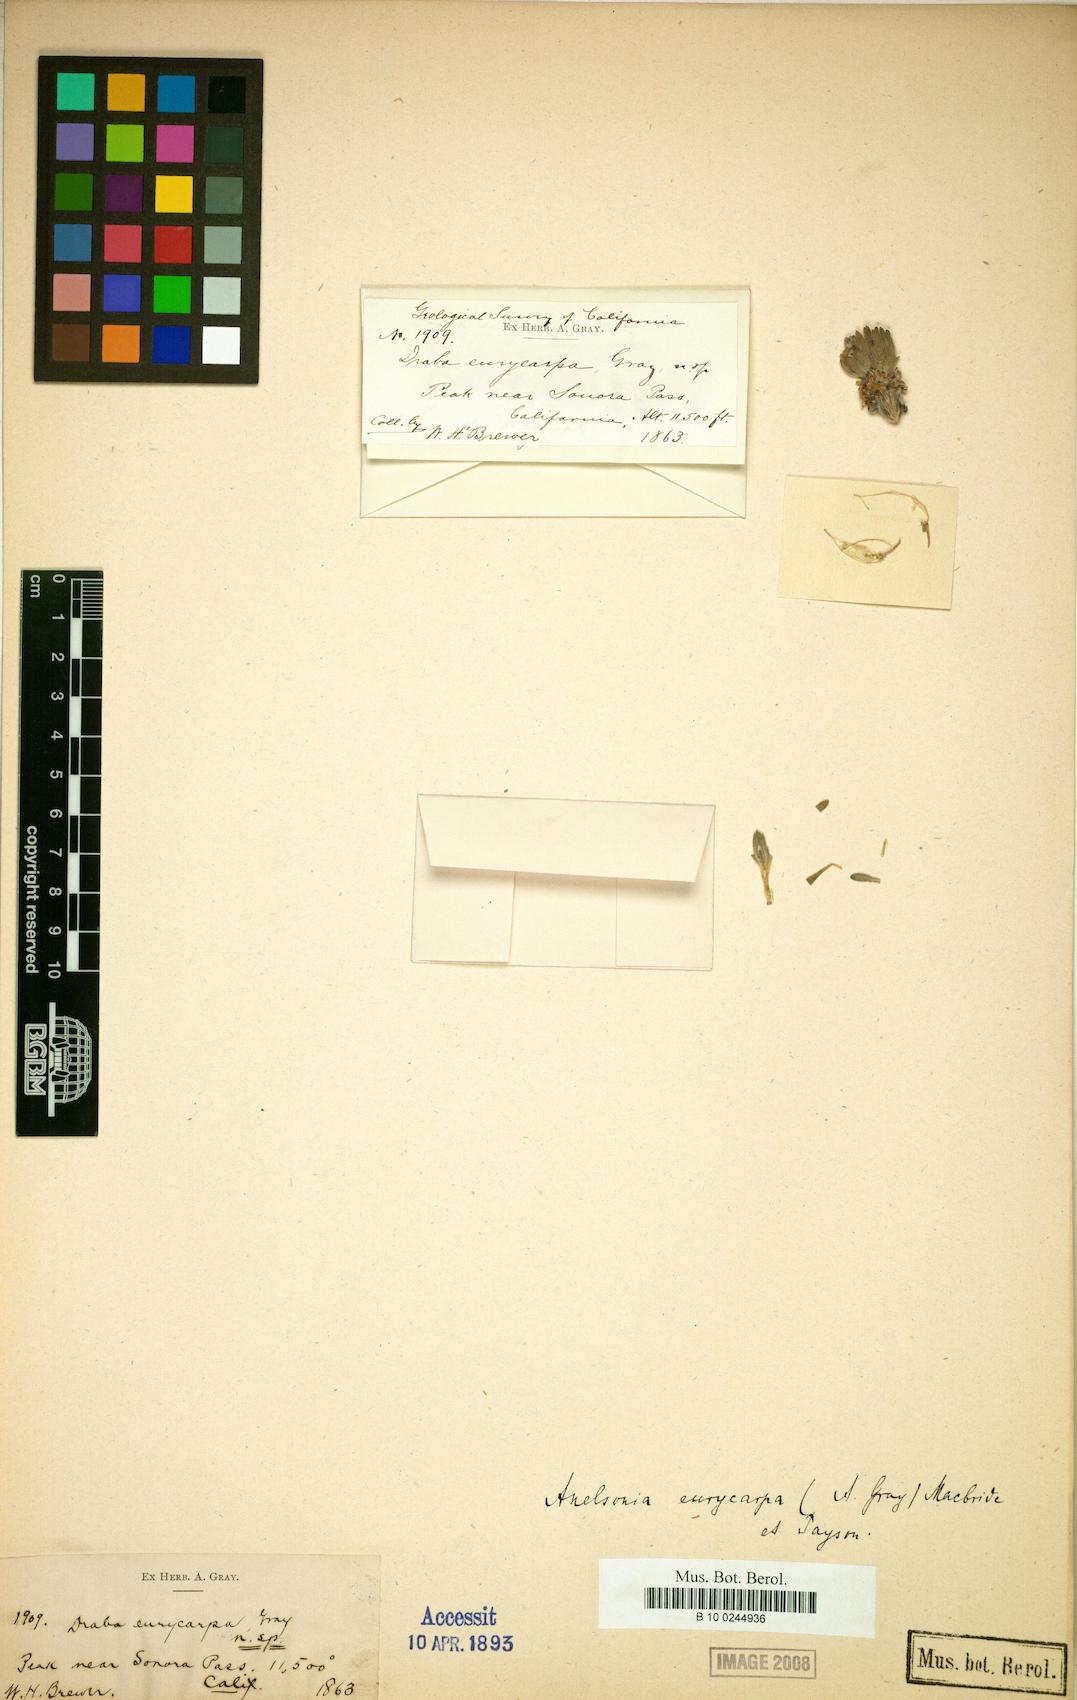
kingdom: Plantae
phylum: Tracheophyta
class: Magnoliopsida
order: Brassicales
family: Brassicaceae
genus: Anelsonia
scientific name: Anelsonia eurycarpa
